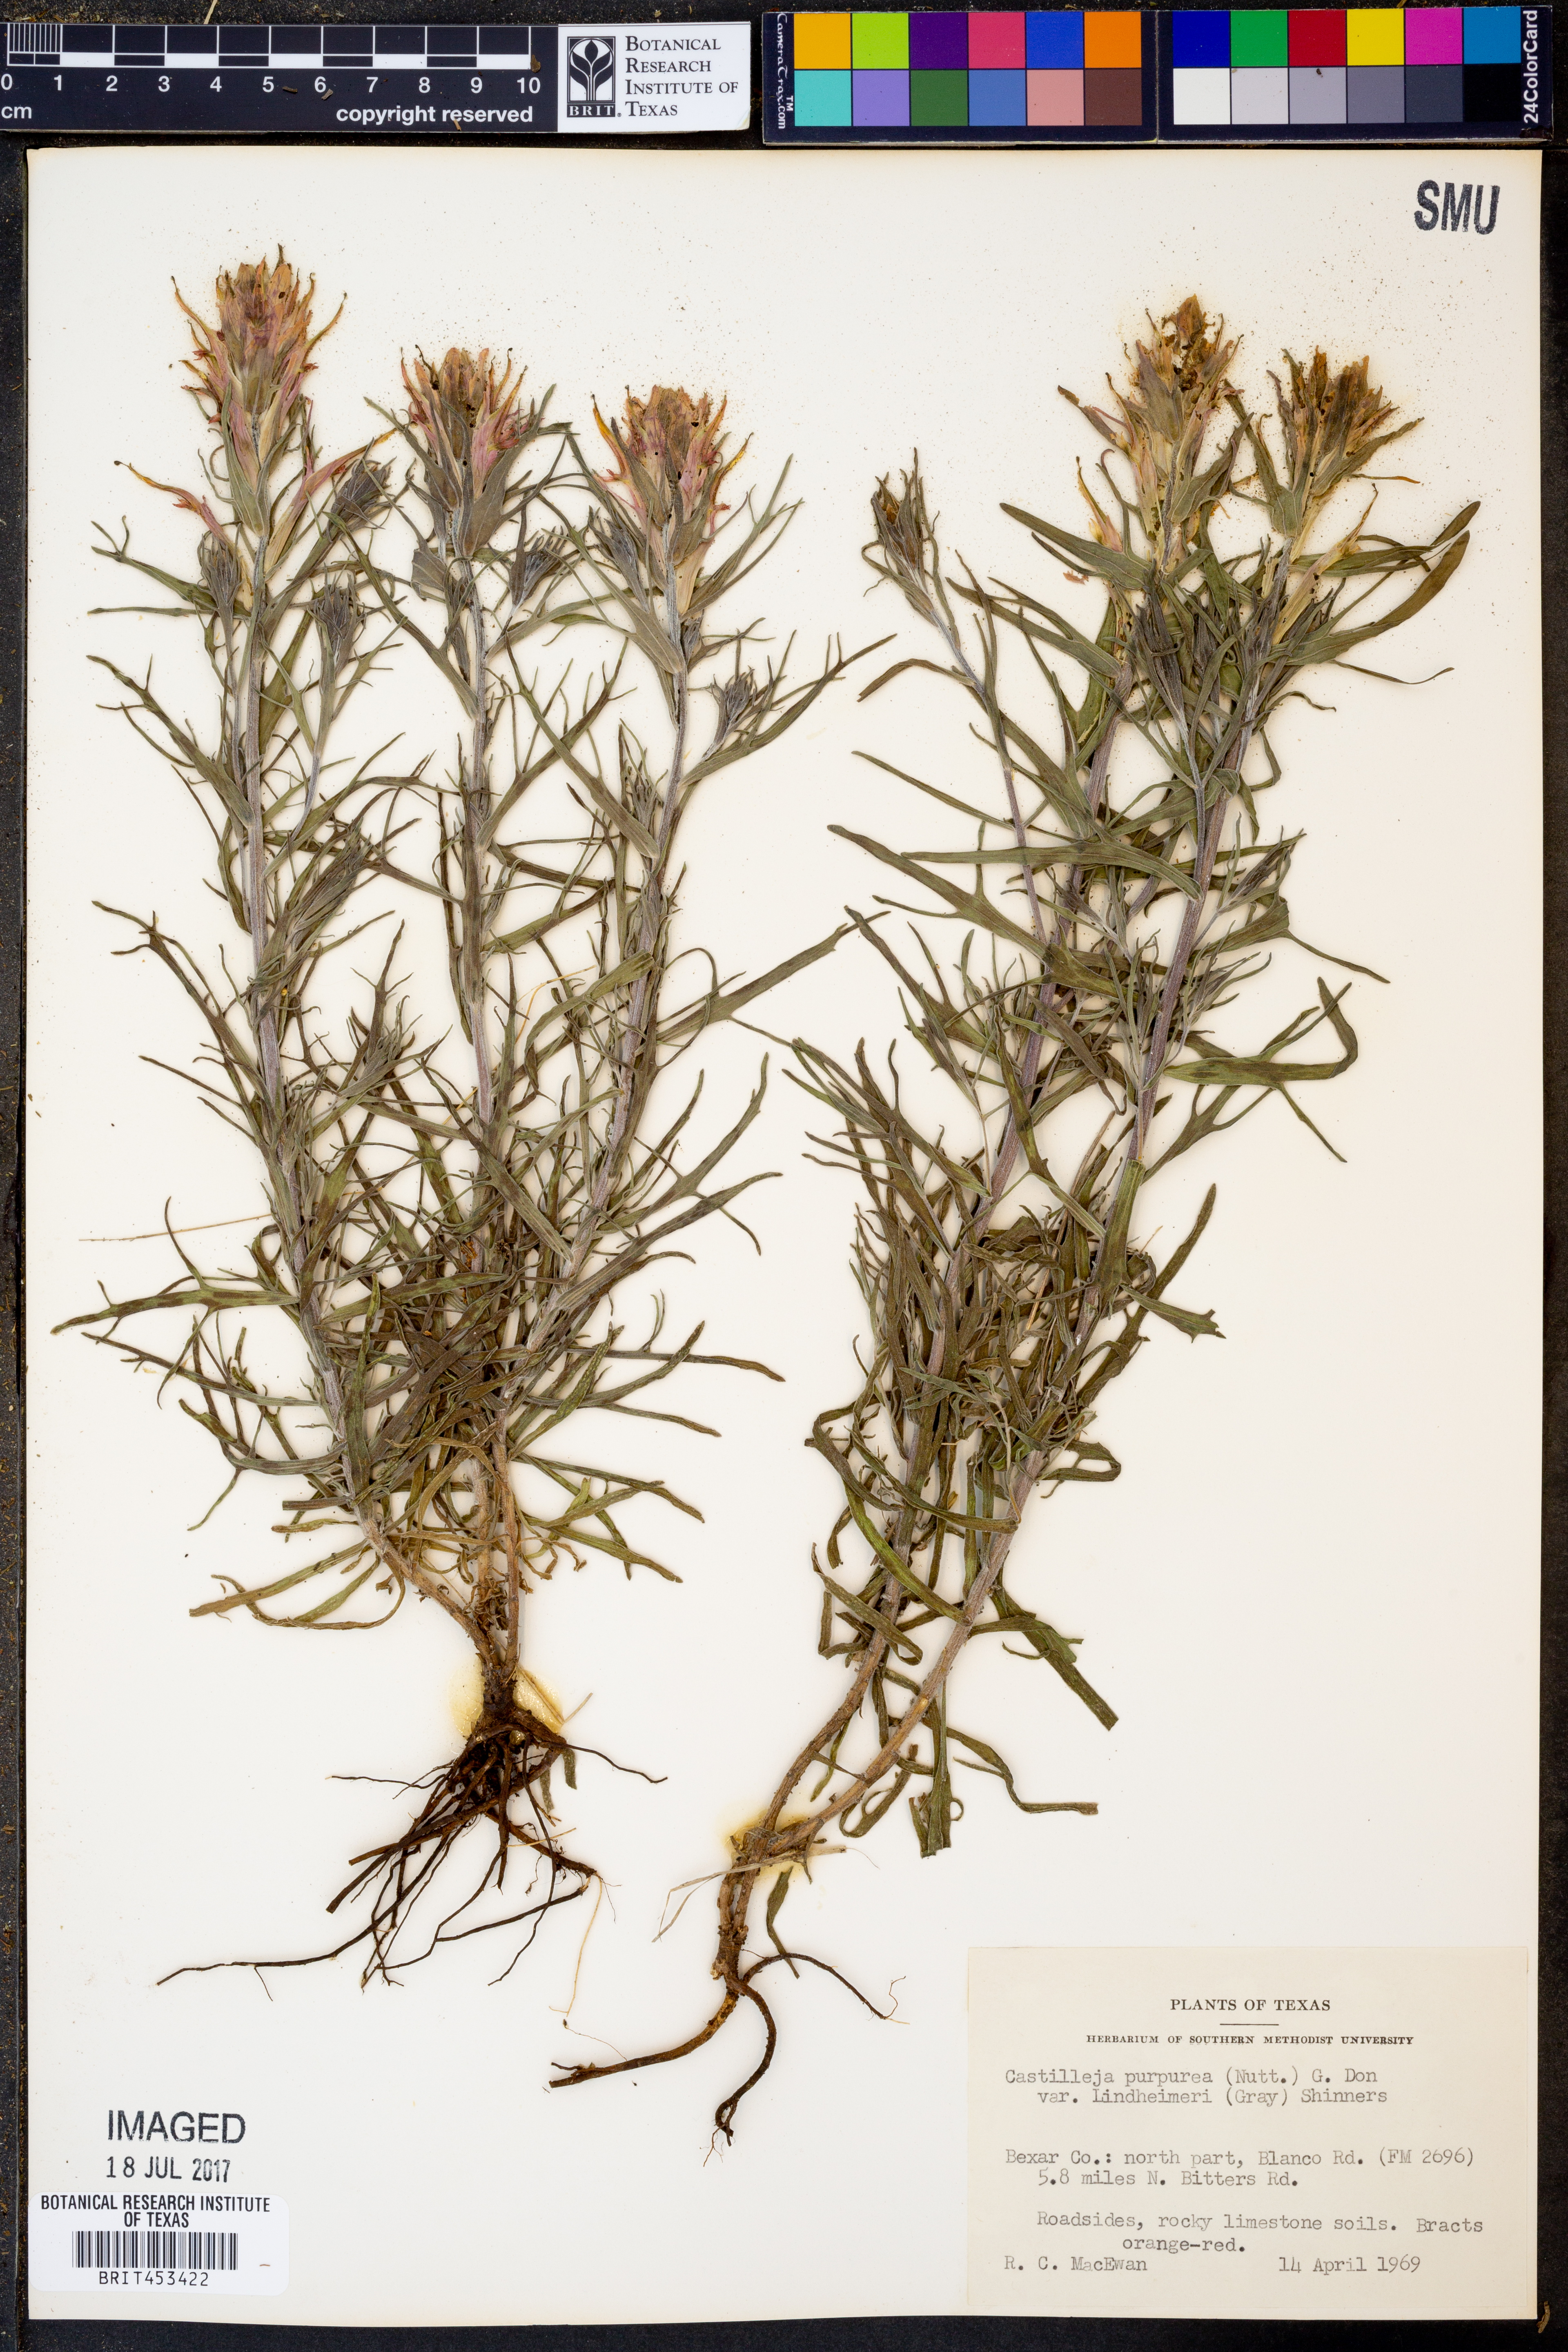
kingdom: Plantae
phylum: Tracheophyta
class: Magnoliopsida
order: Lamiales
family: Orobanchaceae
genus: Castilleja
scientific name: Castilleja lindheimeri
